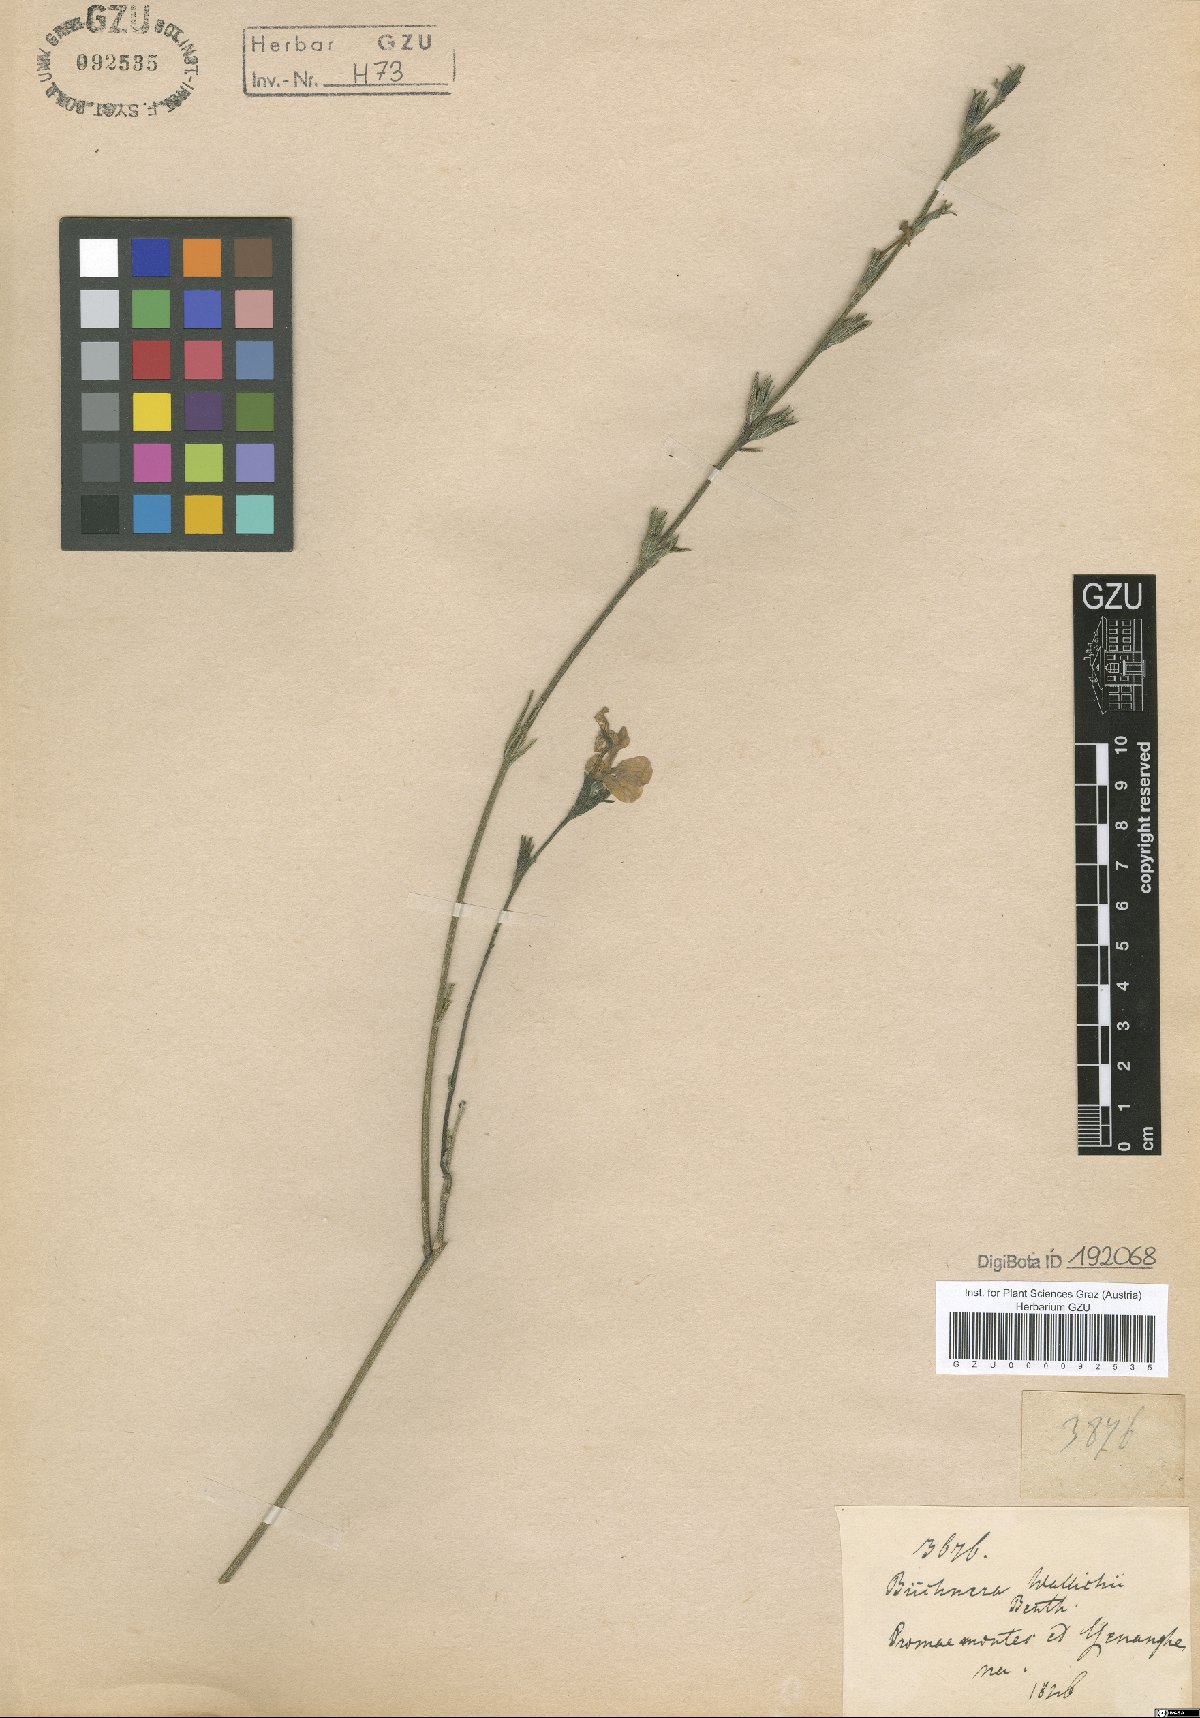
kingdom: Plantae
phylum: Tracheophyta
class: Magnoliopsida
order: Lamiales
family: Orobanchaceae
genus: Striga
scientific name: Striga masuria
